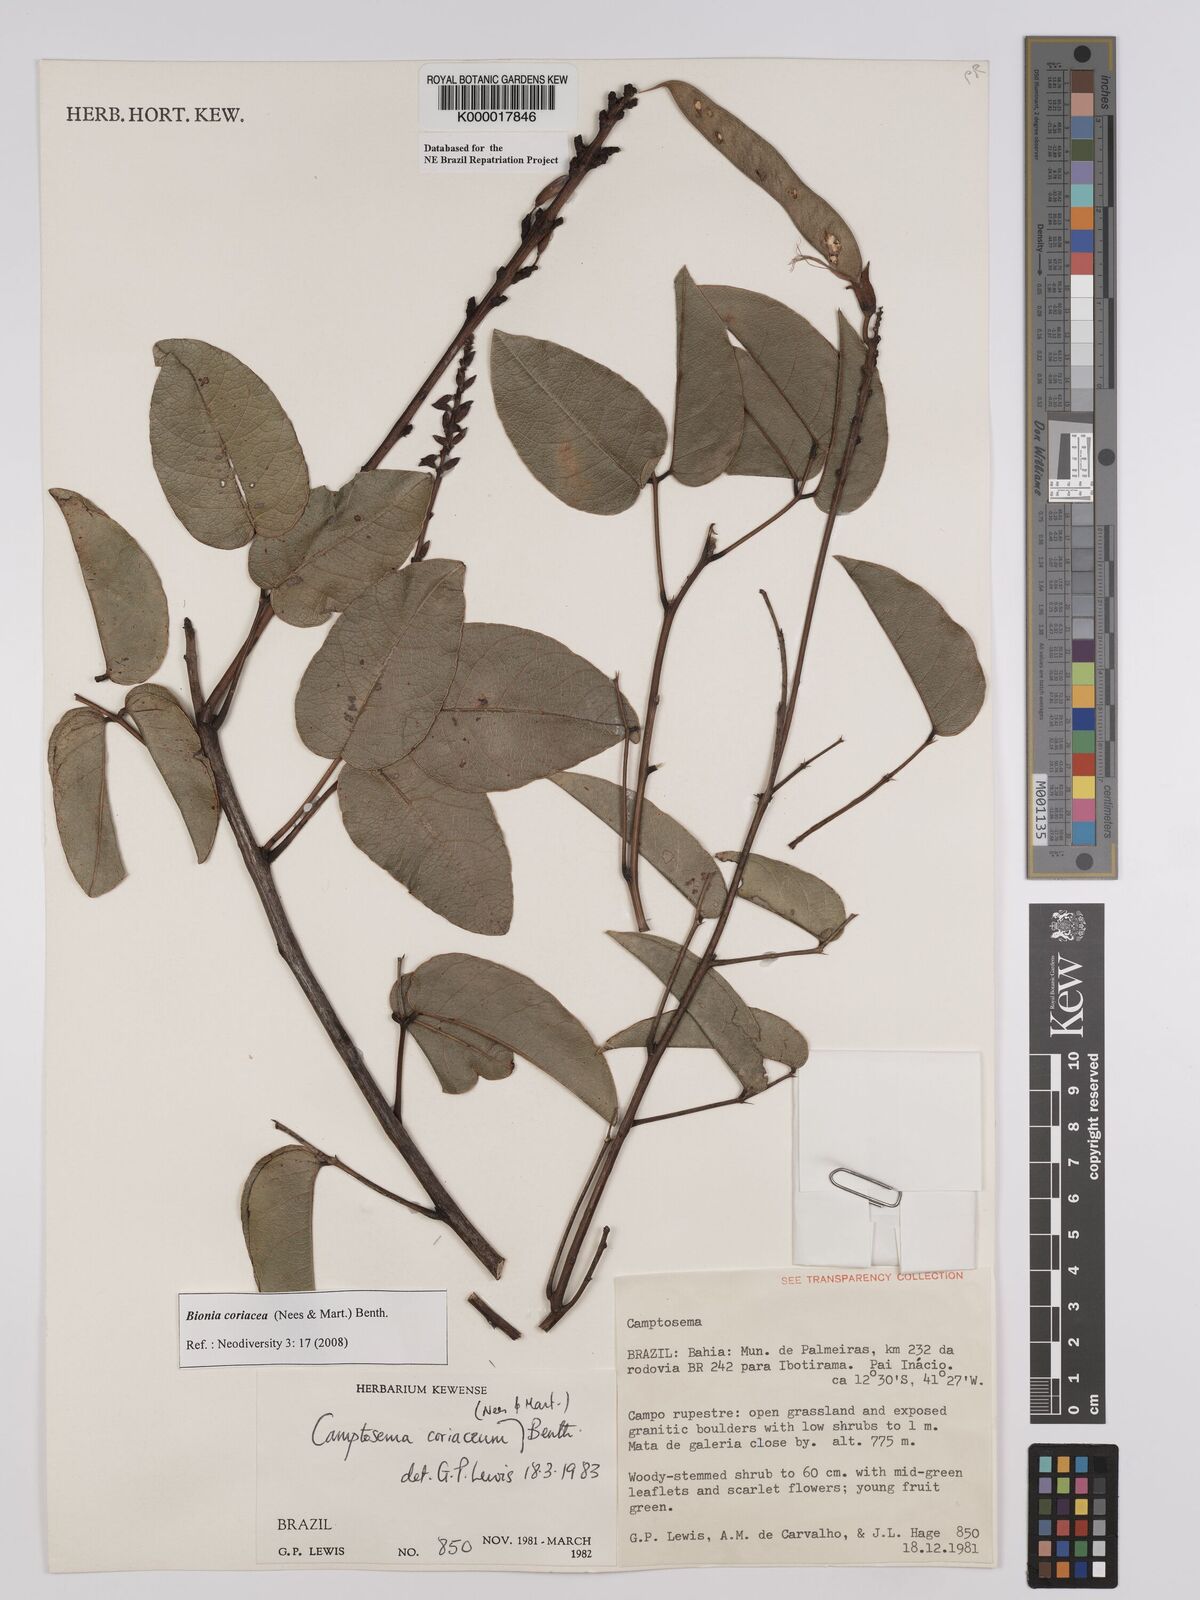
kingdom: Plantae
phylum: Tracheophyta
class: Magnoliopsida
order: Fabales
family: Fabaceae
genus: Camptosema
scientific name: Camptosema coriaceum
